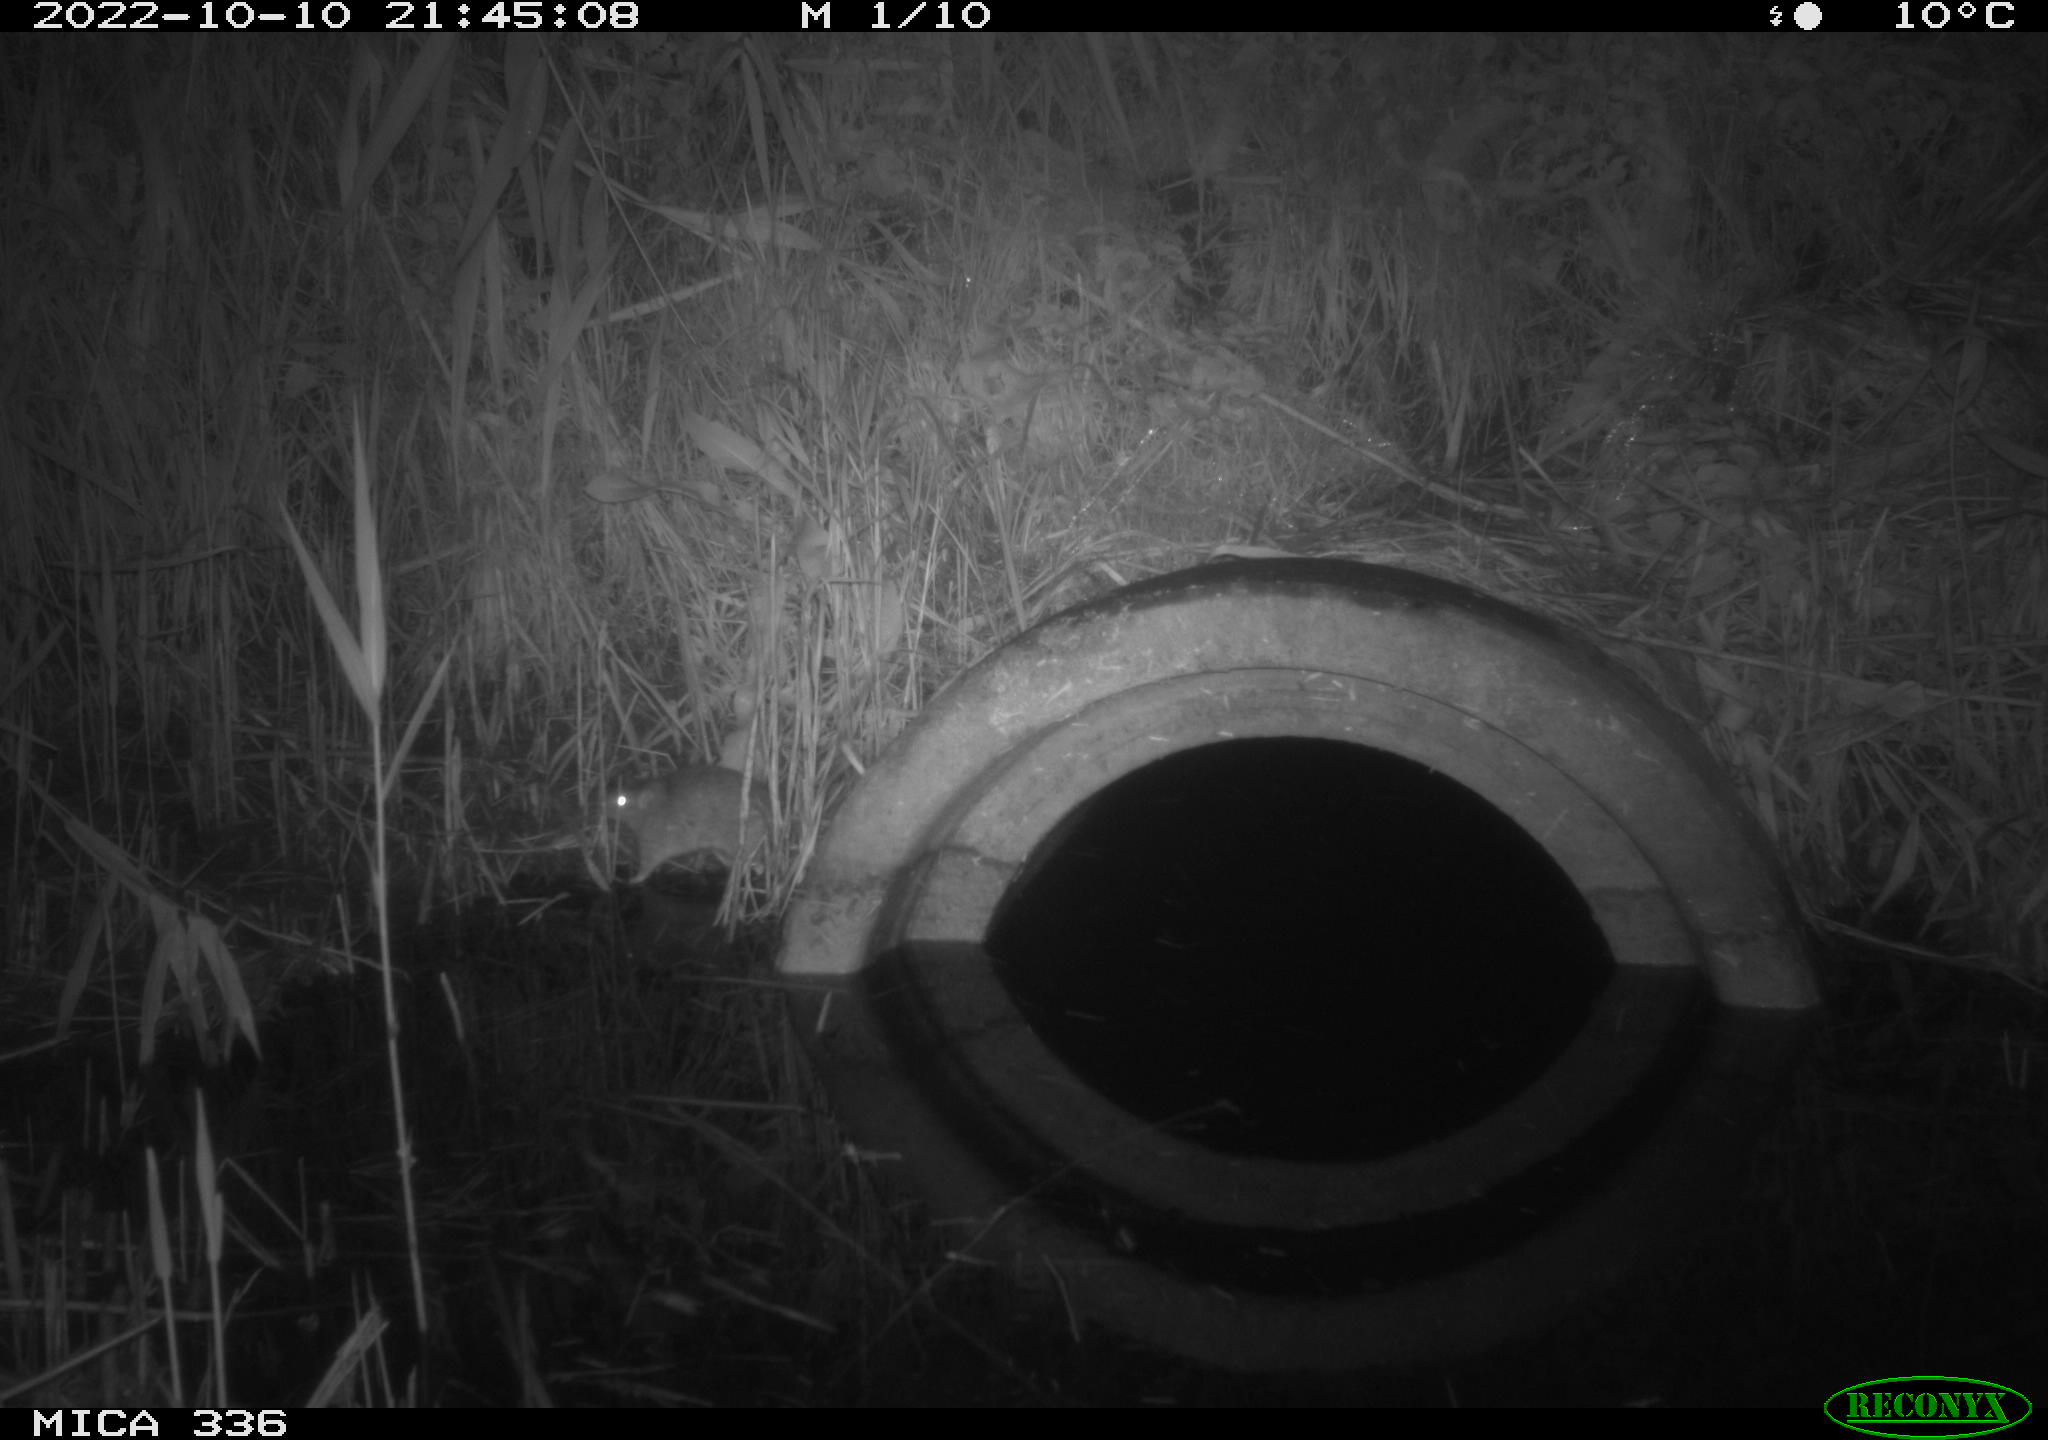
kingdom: Animalia
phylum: Chordata
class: Mammalia
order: Rodentia
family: Muridae
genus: Rattus
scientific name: Rattus norvegicus
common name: Brown rat
